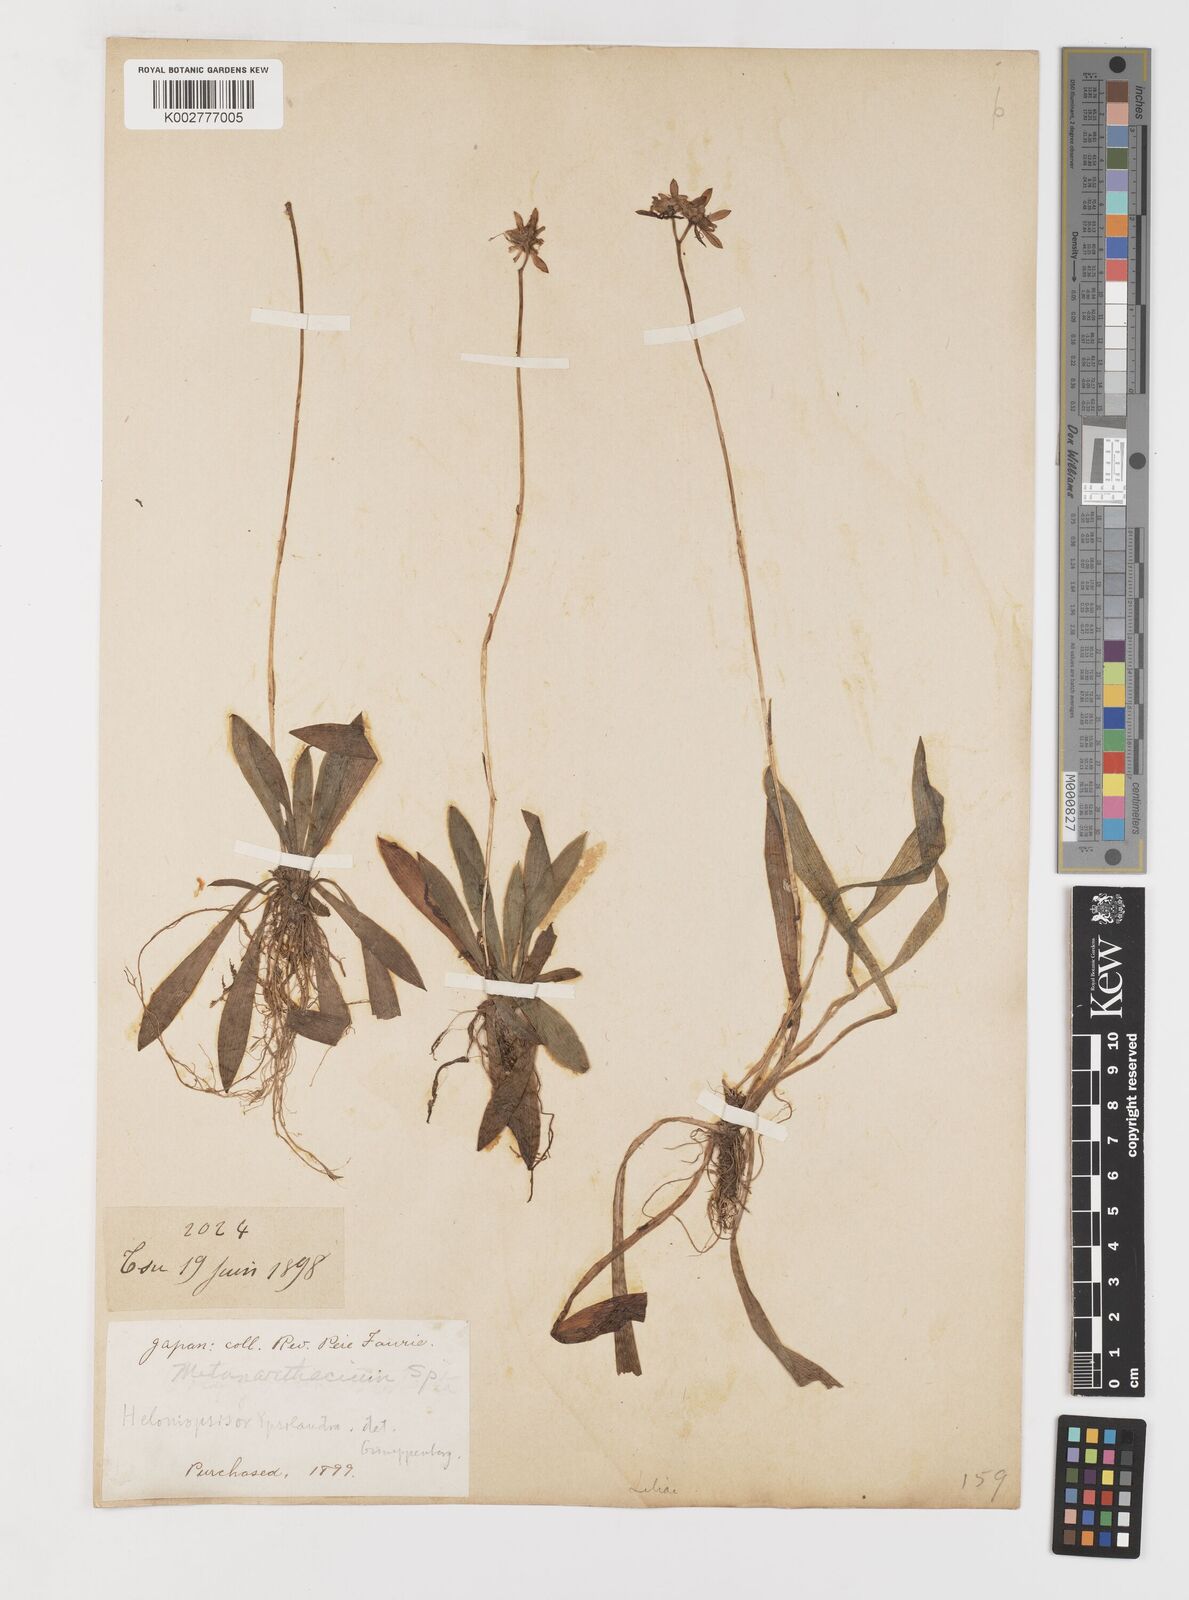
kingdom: Plantae
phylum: Tracheophyta
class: Liliopsida
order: Liliales
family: Melanthiaceae
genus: Helonias
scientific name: Helonias
